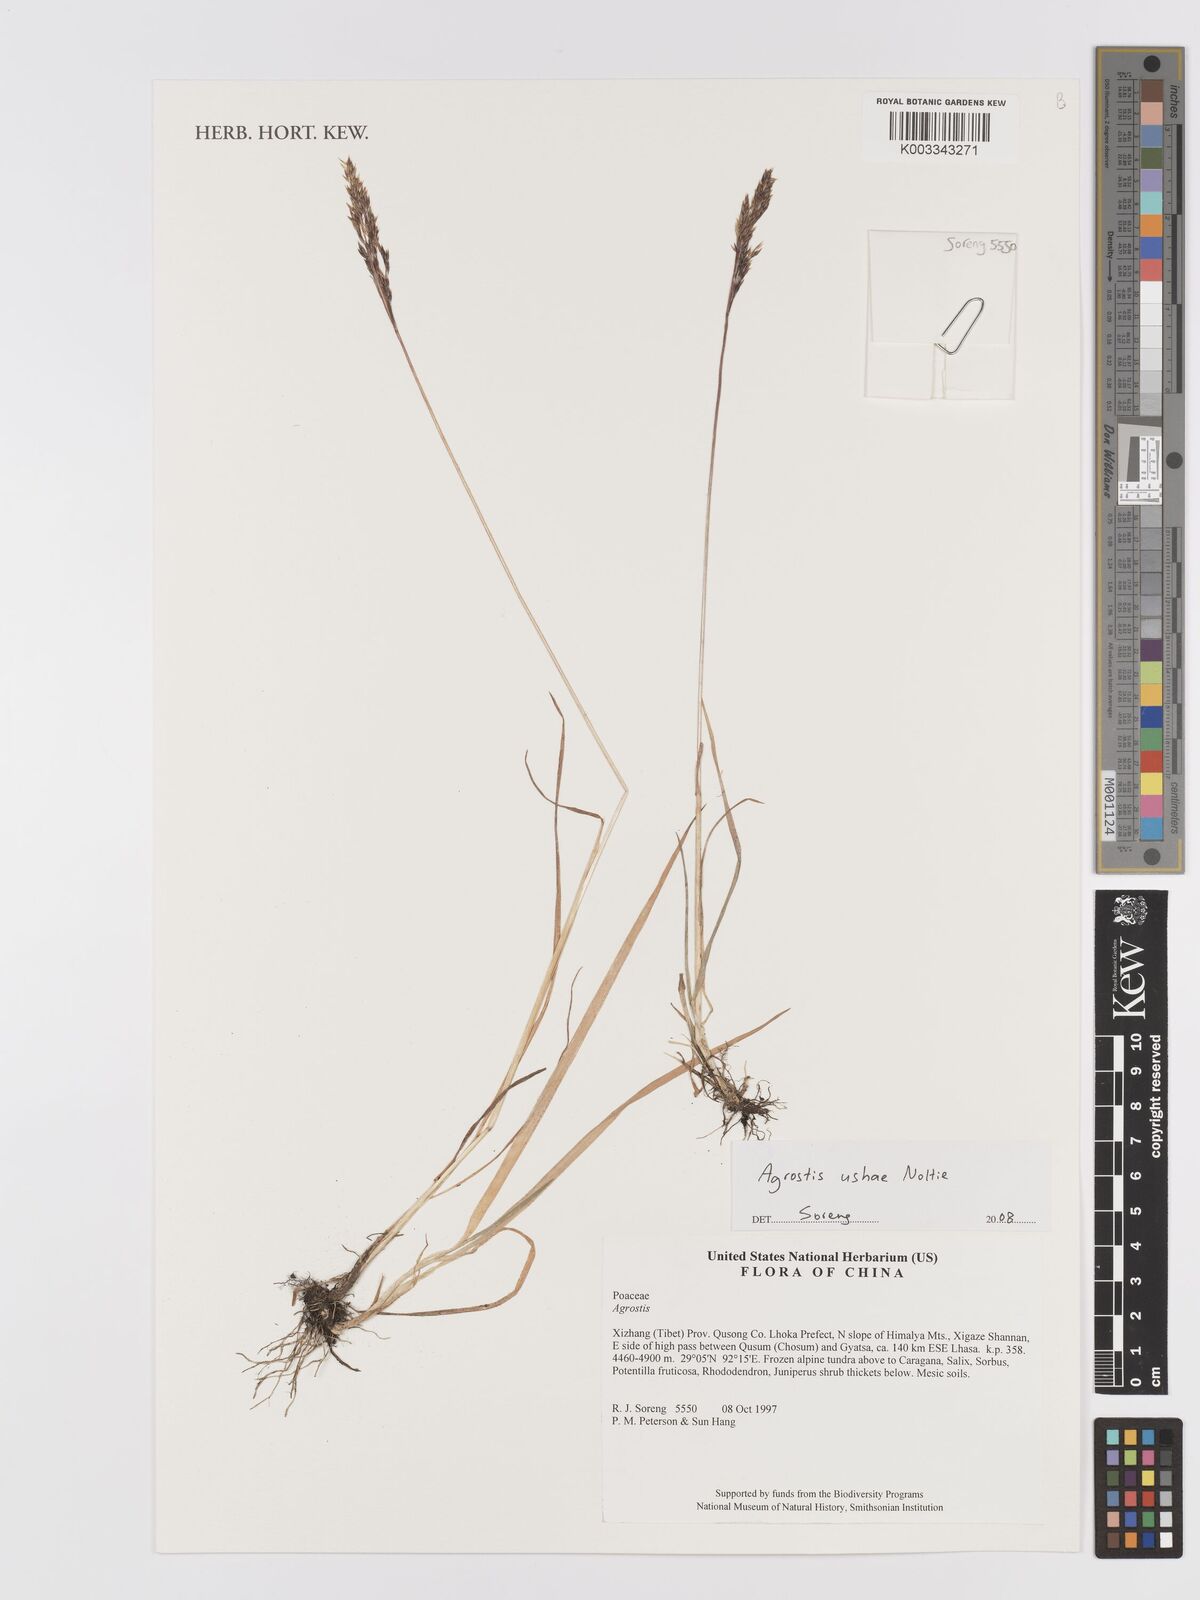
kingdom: Plantae
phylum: Tracheophyta
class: Liliopsida
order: Poales
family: Poaceae
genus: Agrostis
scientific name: Agrostis ushae
